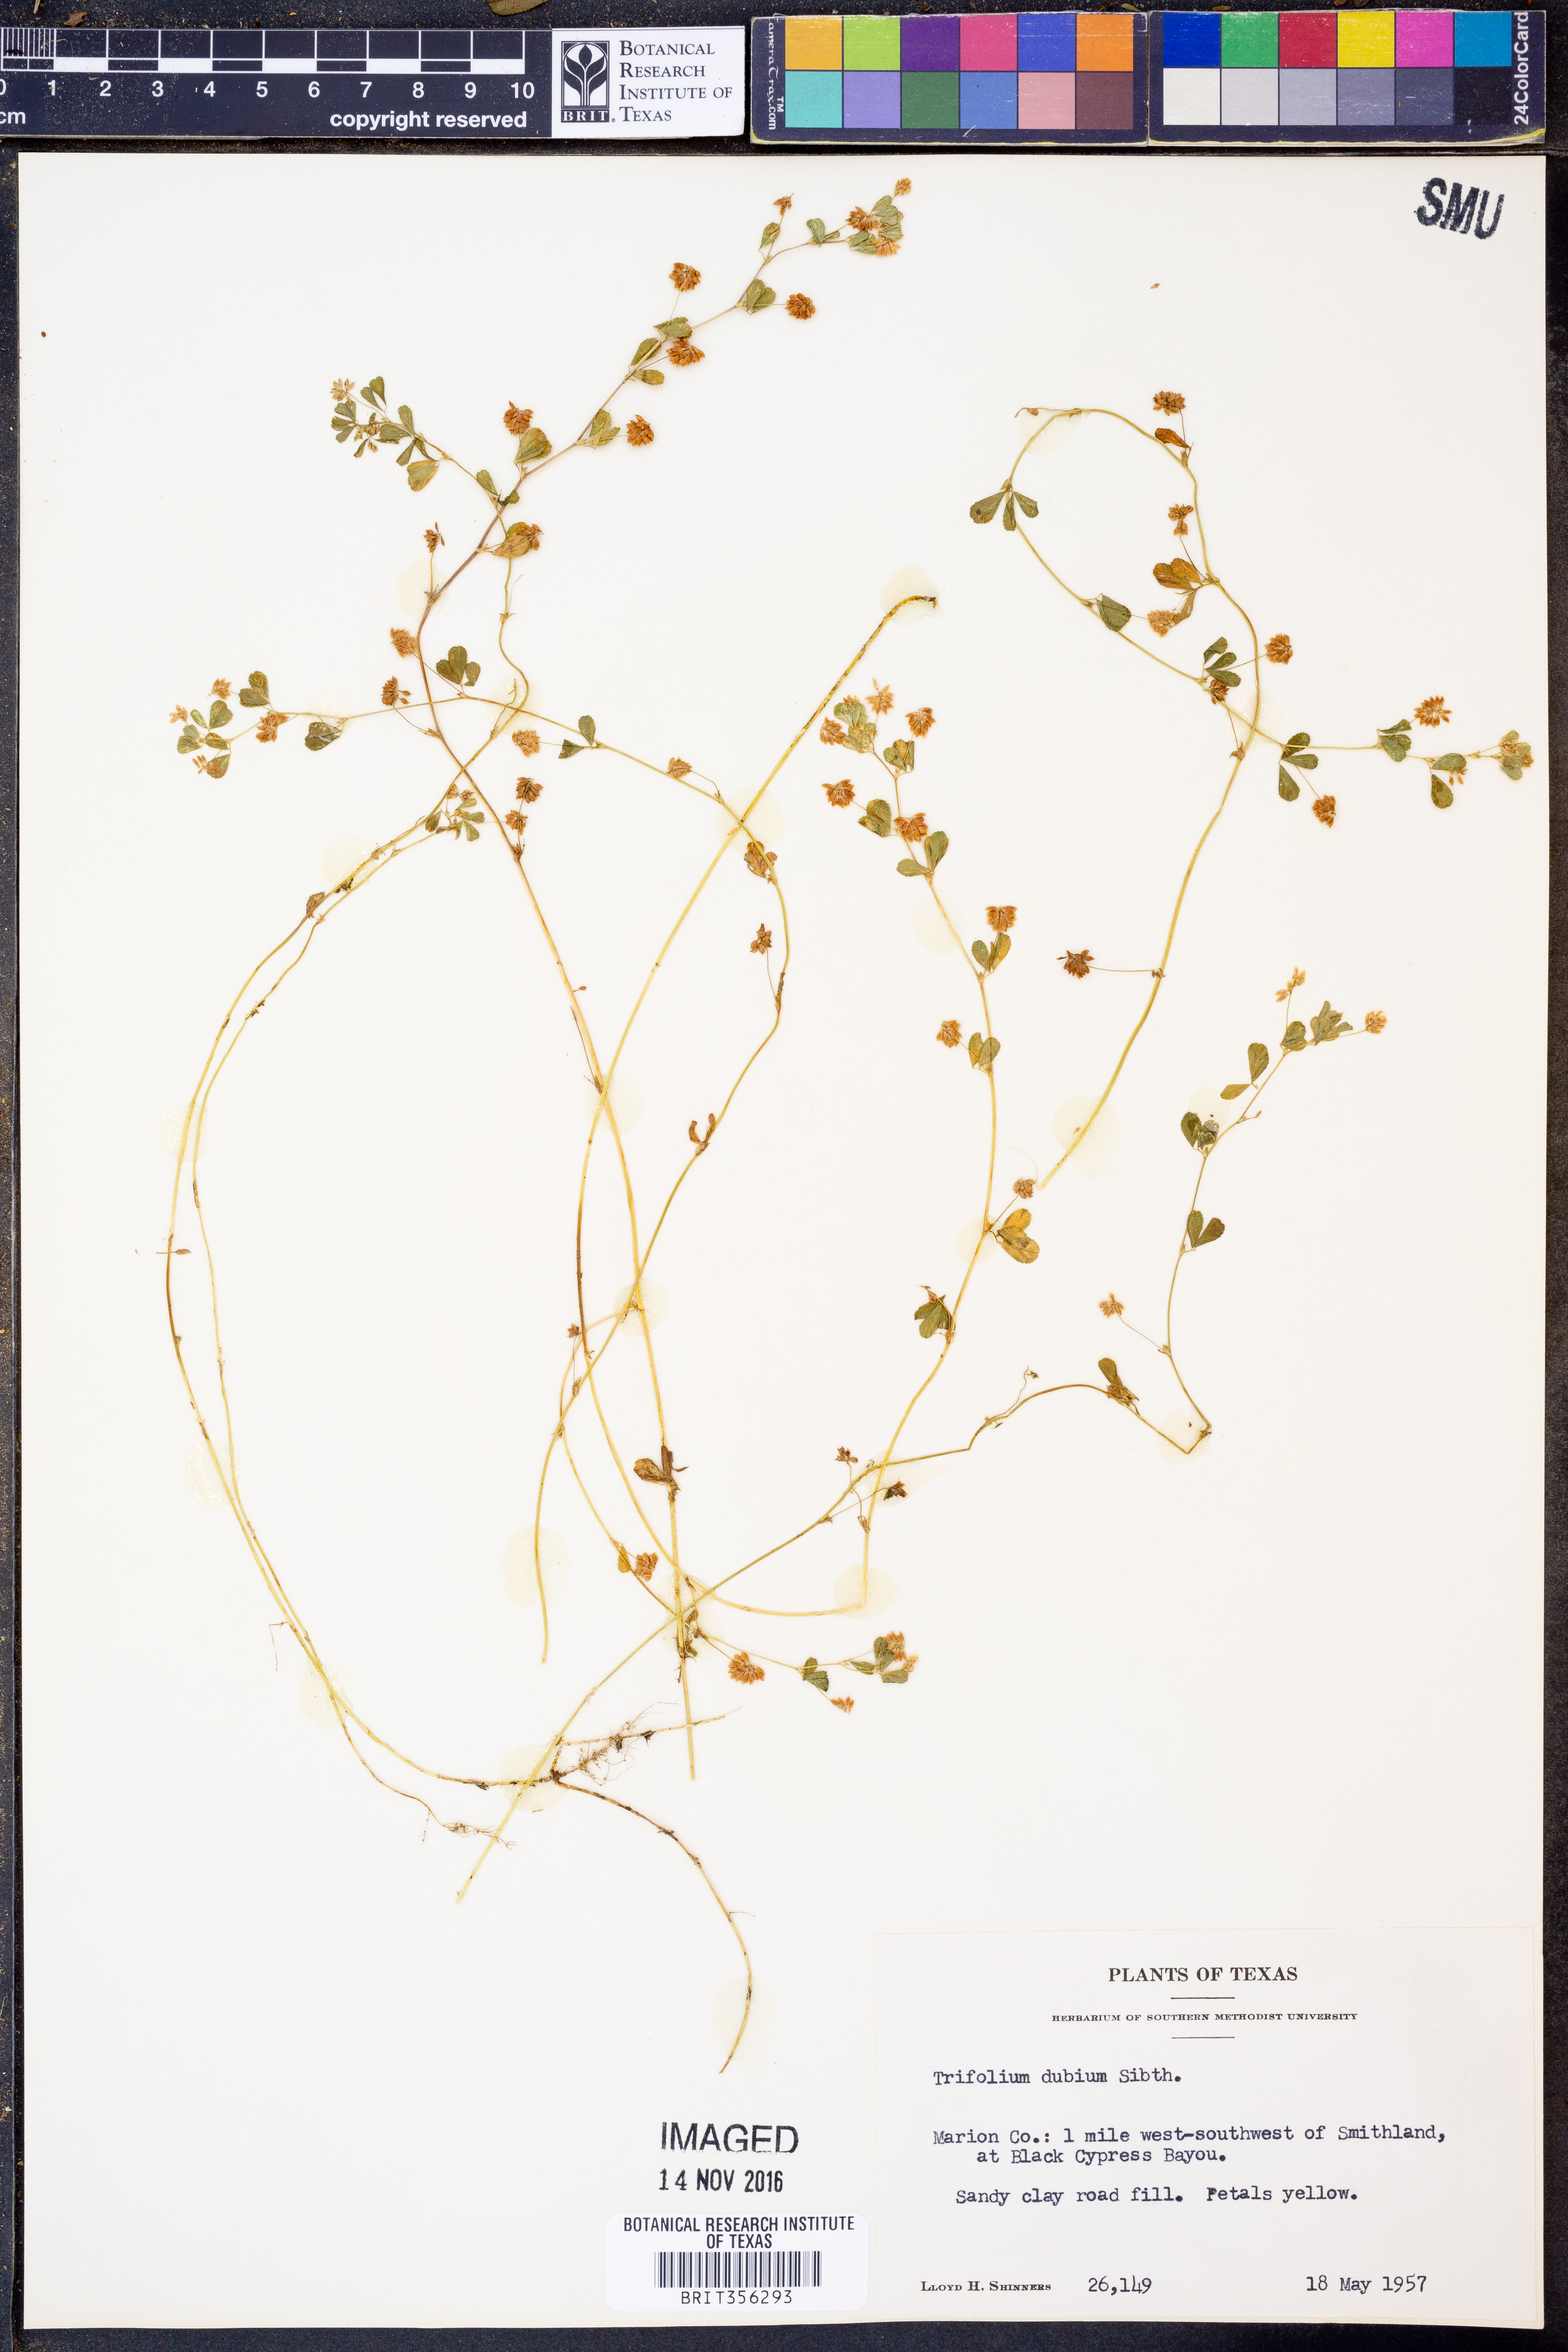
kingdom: Plantae
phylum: Tracheophyta
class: Magnoliopsida
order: Fabales
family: Fabaceae
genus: Trifolium
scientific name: Trifolium dubium
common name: Suckling clover
